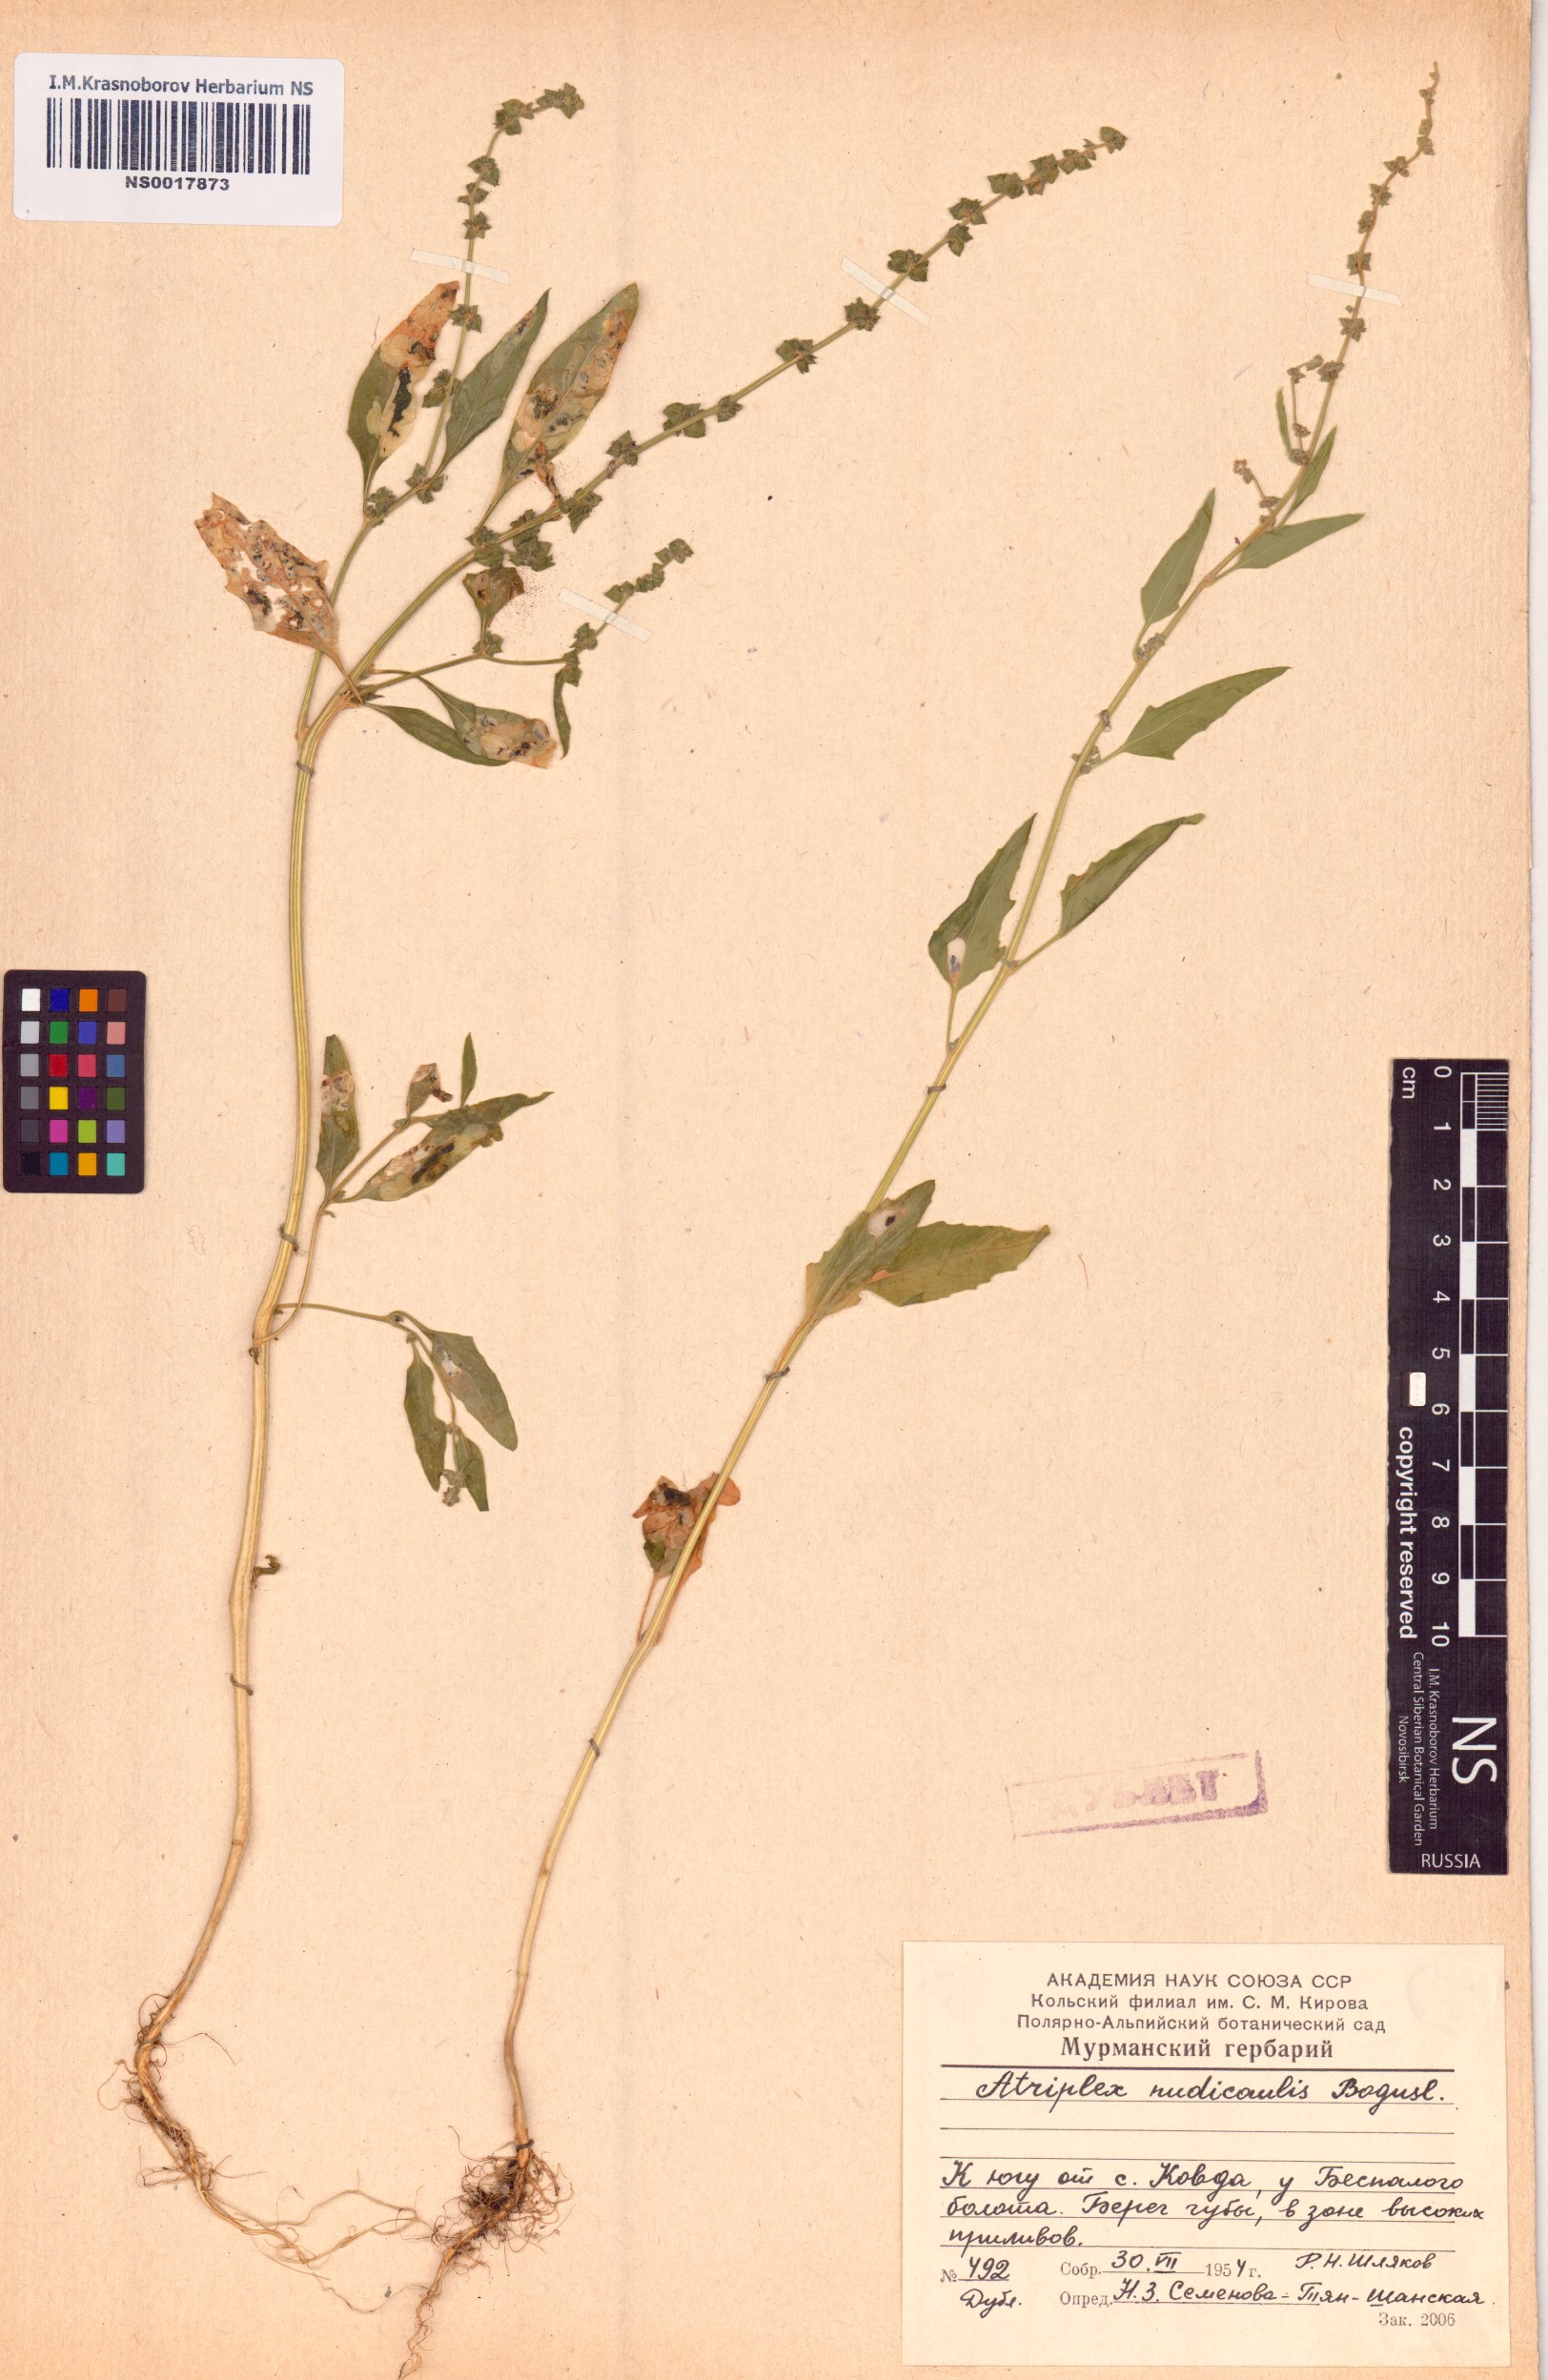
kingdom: Plantae
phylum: Tracheophyta
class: Magnoliopsida
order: Caryophyllales
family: Amaranthaceae
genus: Atriplex
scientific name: Atriplex nudicaulis
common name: Baltic orache
